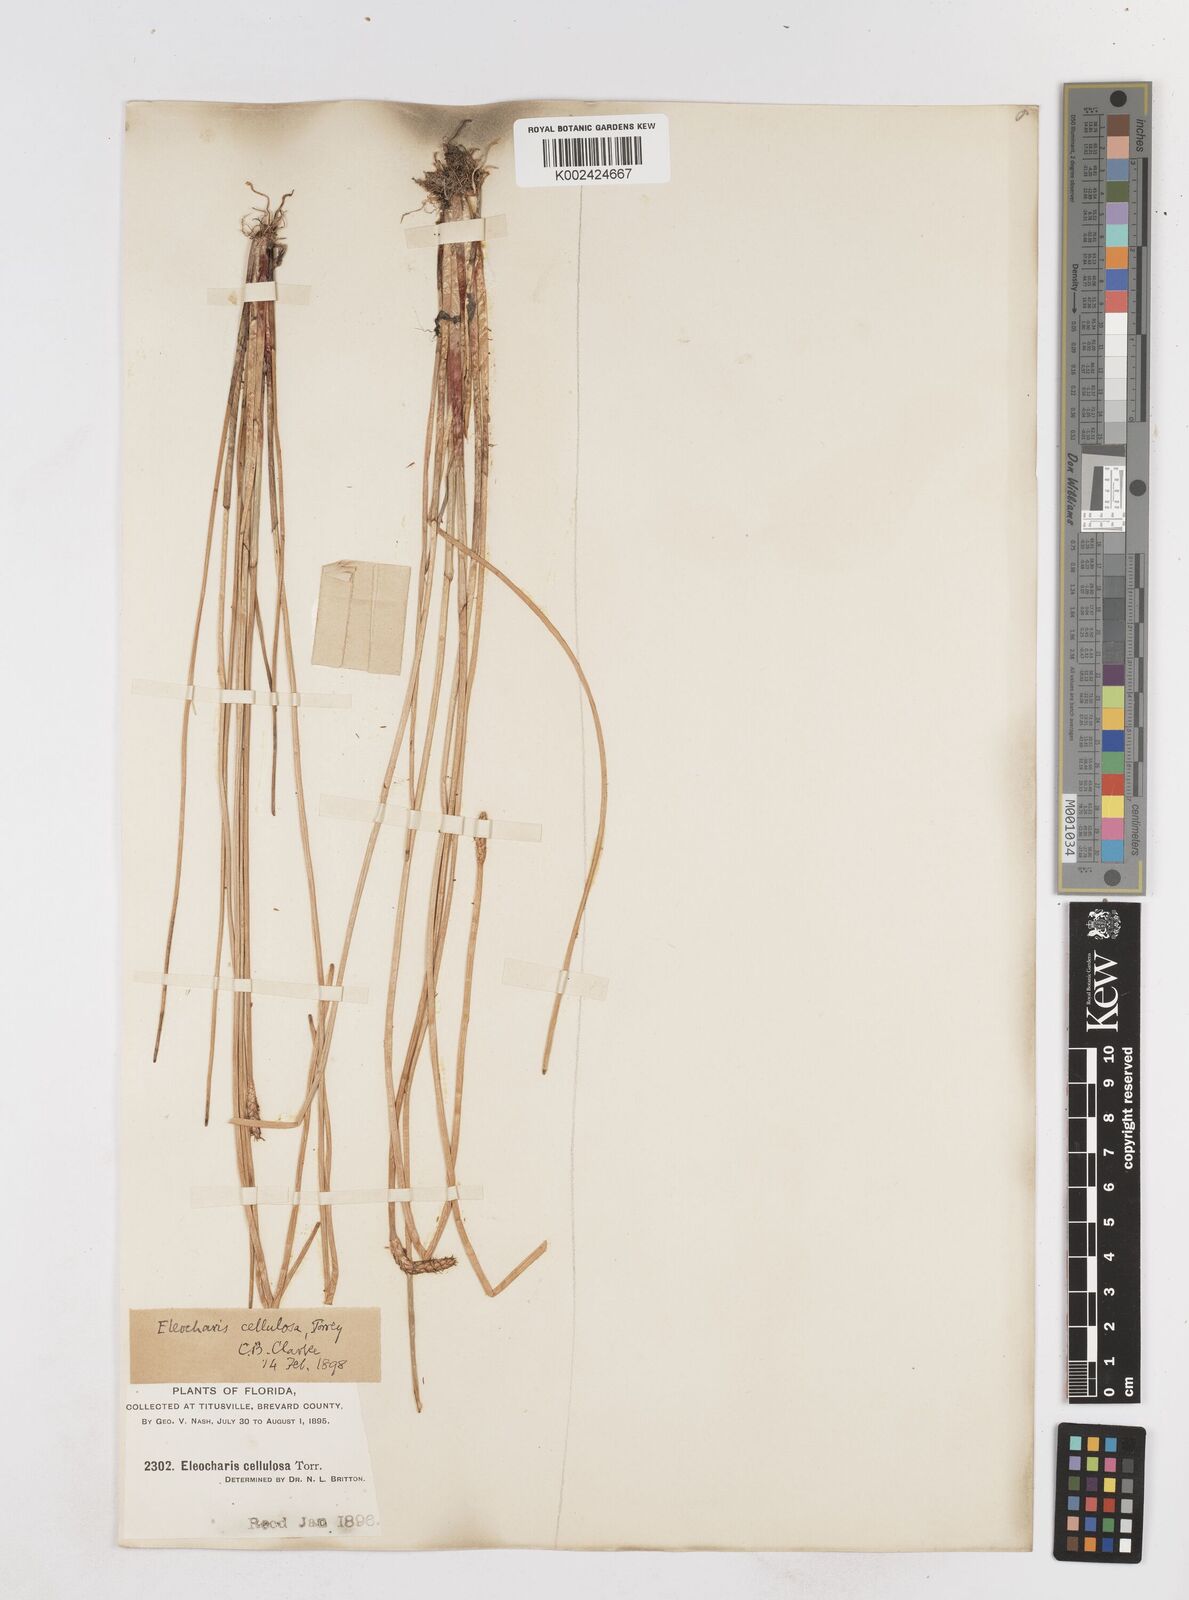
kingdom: Plantae
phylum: Tracheophyta
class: Liliopsida
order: Poales
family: Cyperaceae
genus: Eleocharis
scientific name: Eleocharis cellulosa
